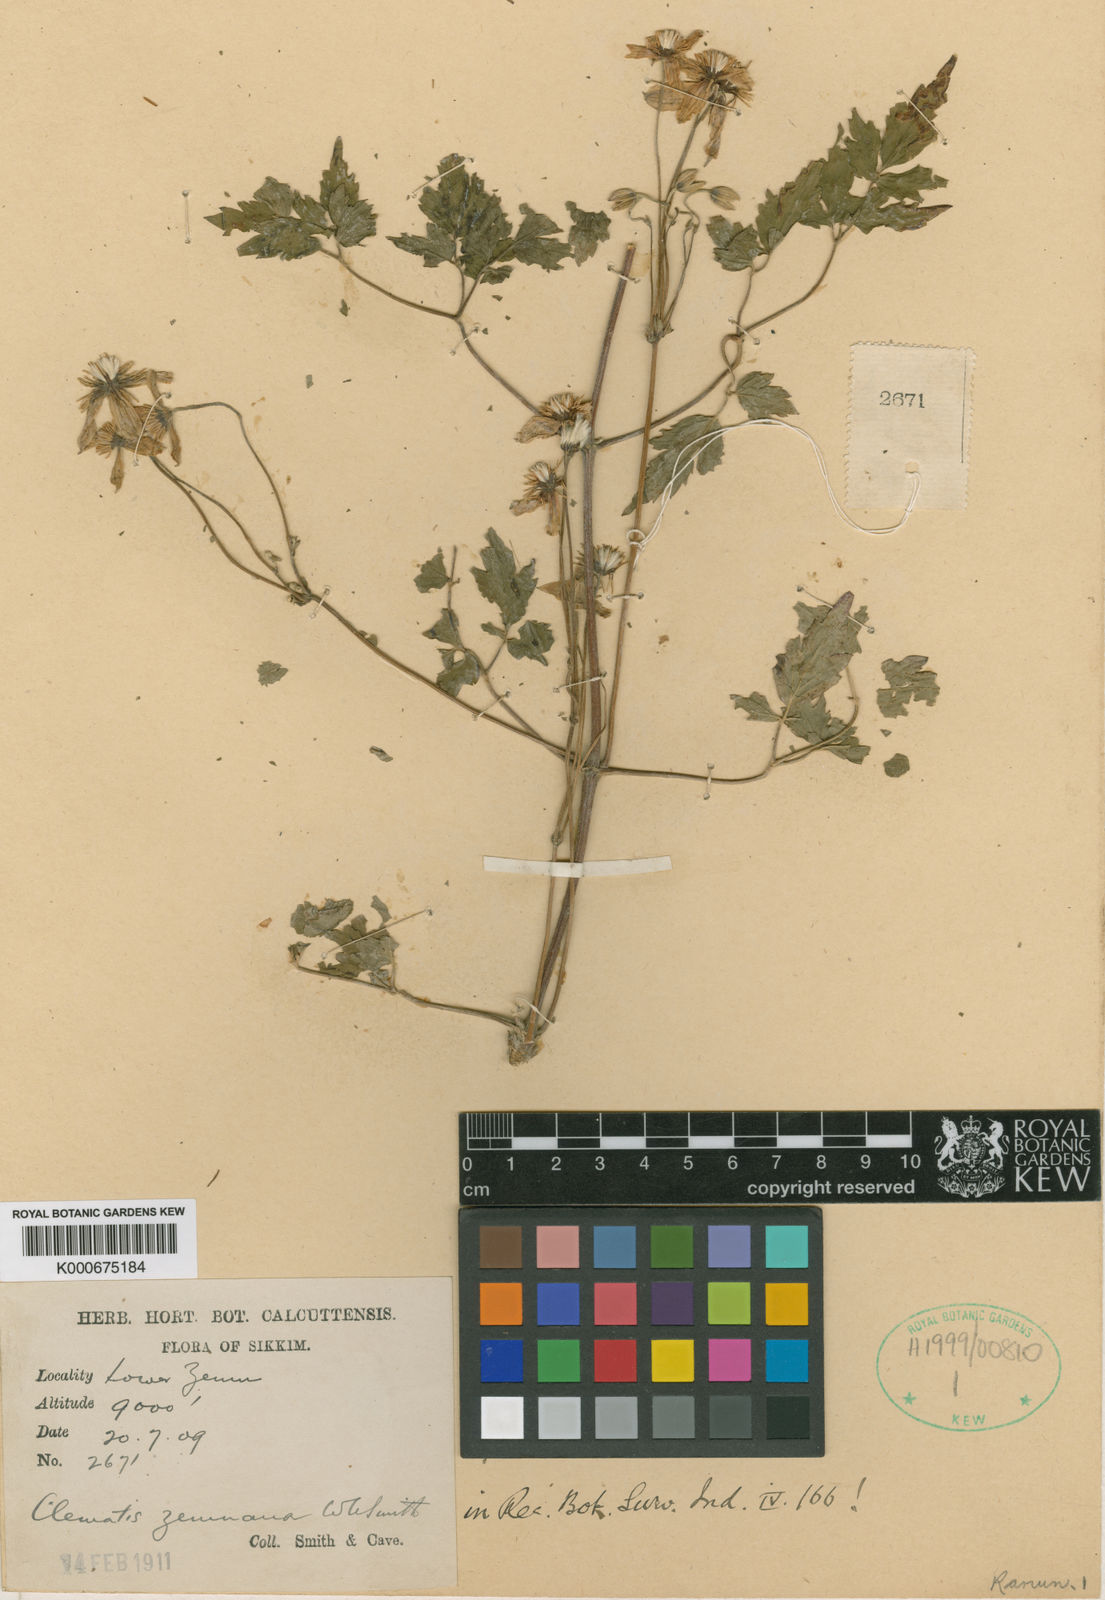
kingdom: Plantae
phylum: Tracheophyta
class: Magnoliopsida
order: Ranunculales
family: Ranunculaceae
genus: Clematis
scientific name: Clematis zemuensis
